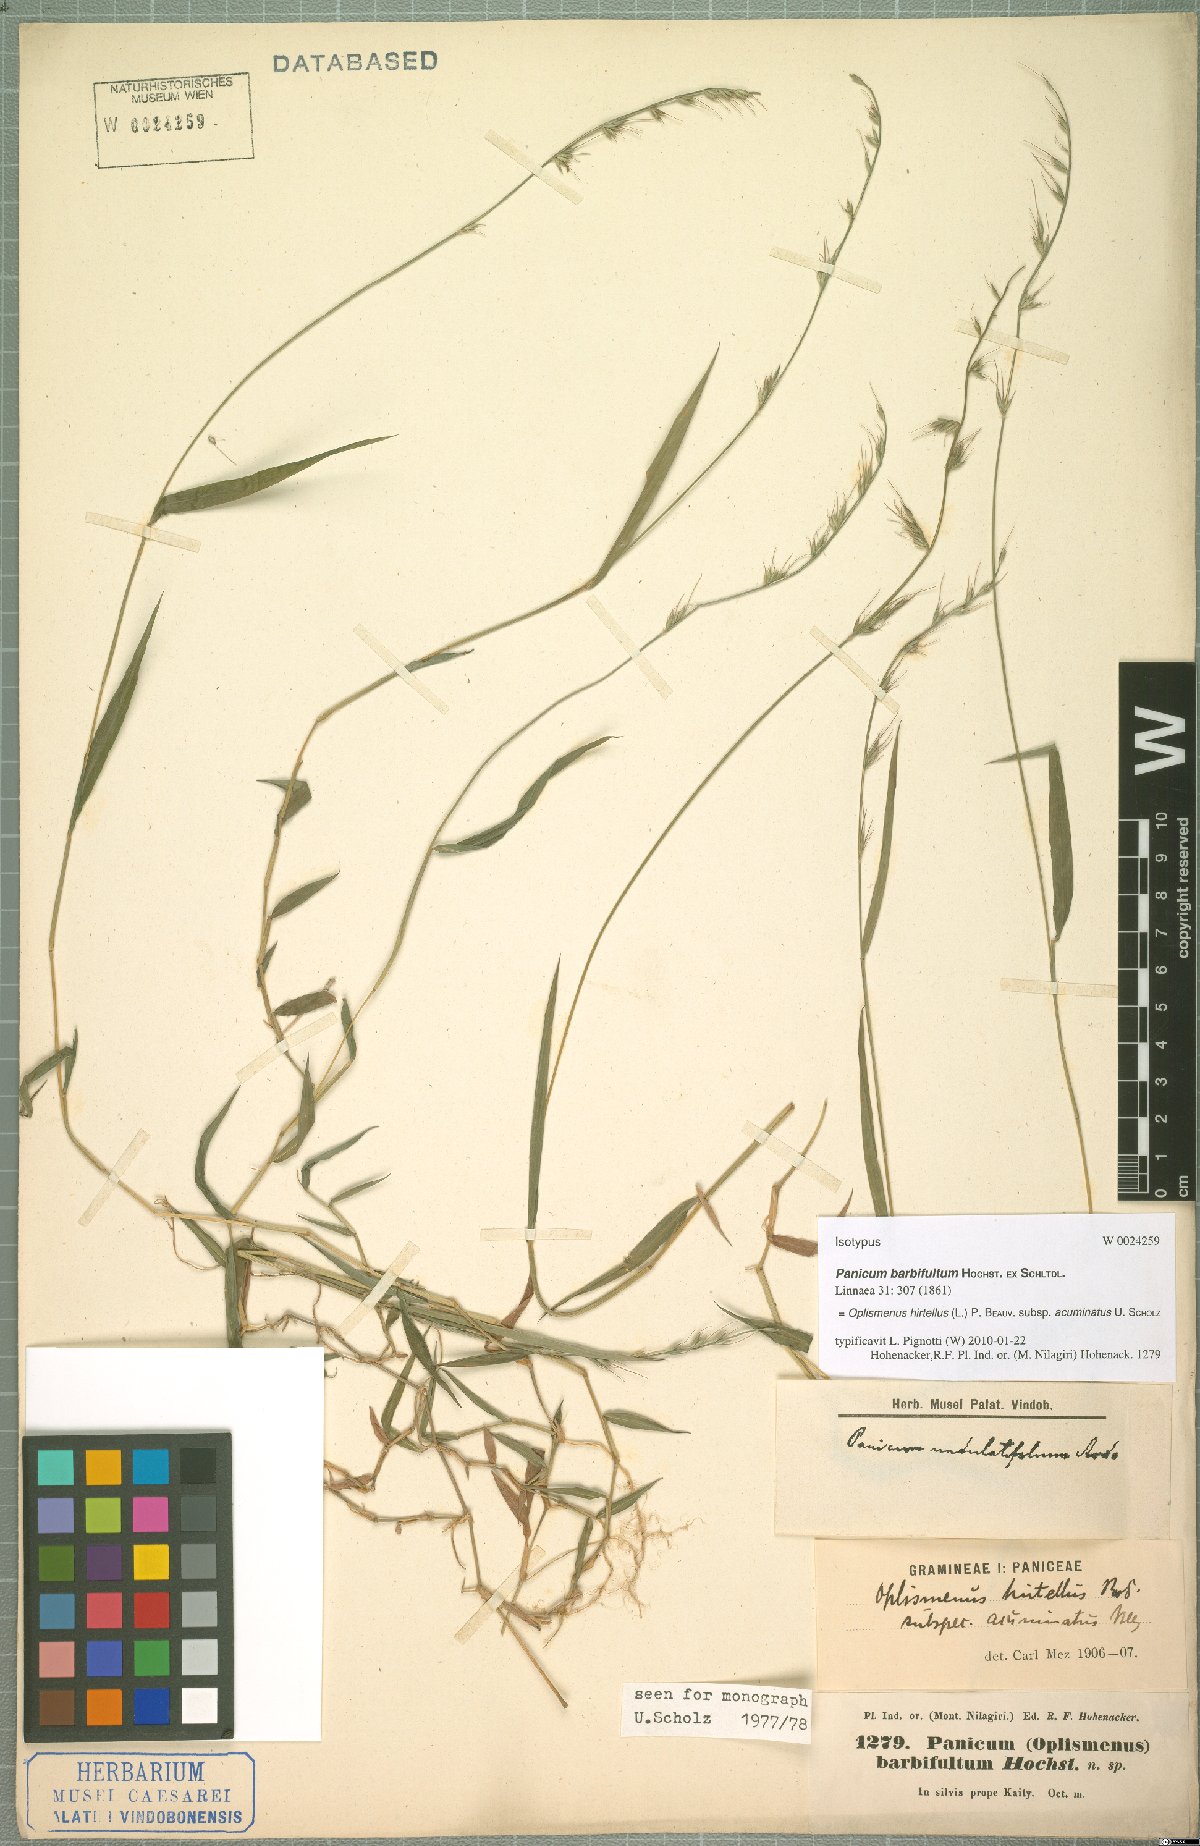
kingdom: Plantae
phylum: Tracheophyta
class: Liliopsida
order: Poales
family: Poaceae
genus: Oplismenus
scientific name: Oplismenus hirtellus
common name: Basketgrass
